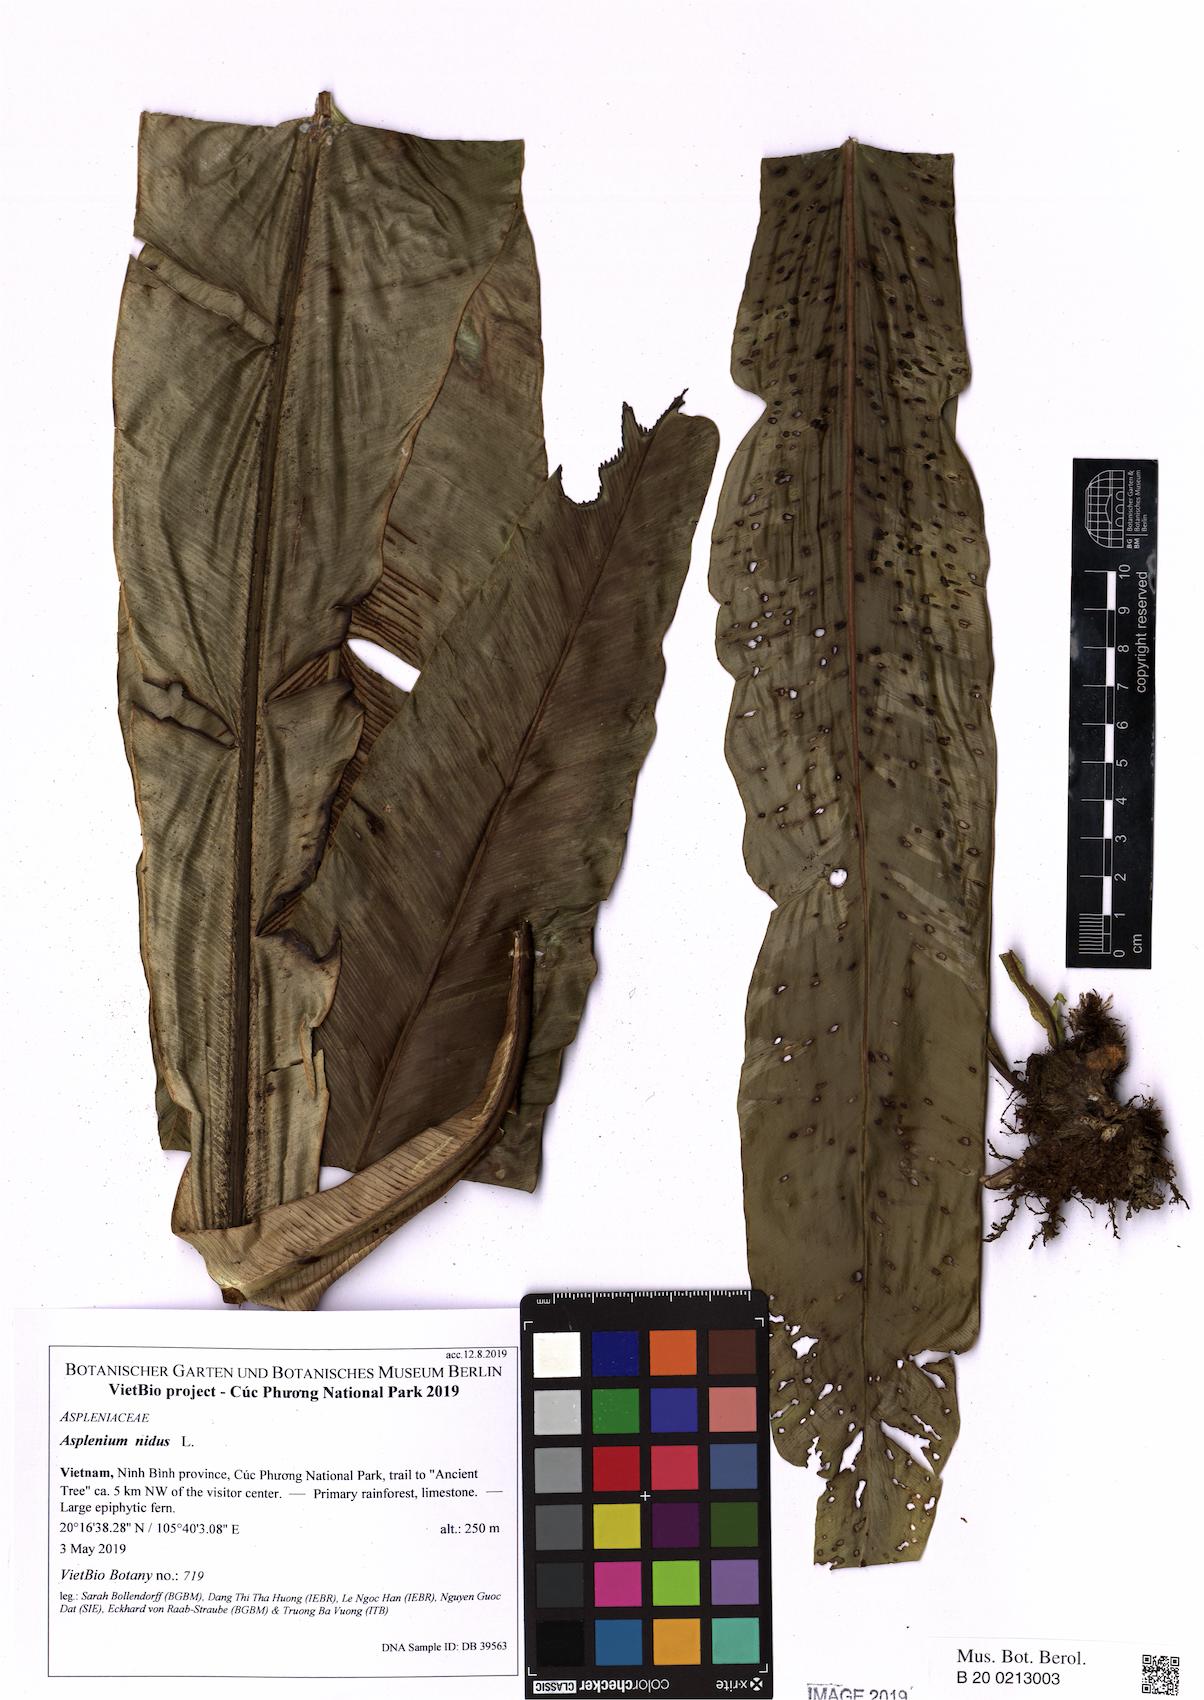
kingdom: Plantae
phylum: Tracheophyta
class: Polypodiopsida
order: Polypodiales
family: Aspleniaceae
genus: Asplenium
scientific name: Asplenium nidus
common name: Bird's-nest fern
